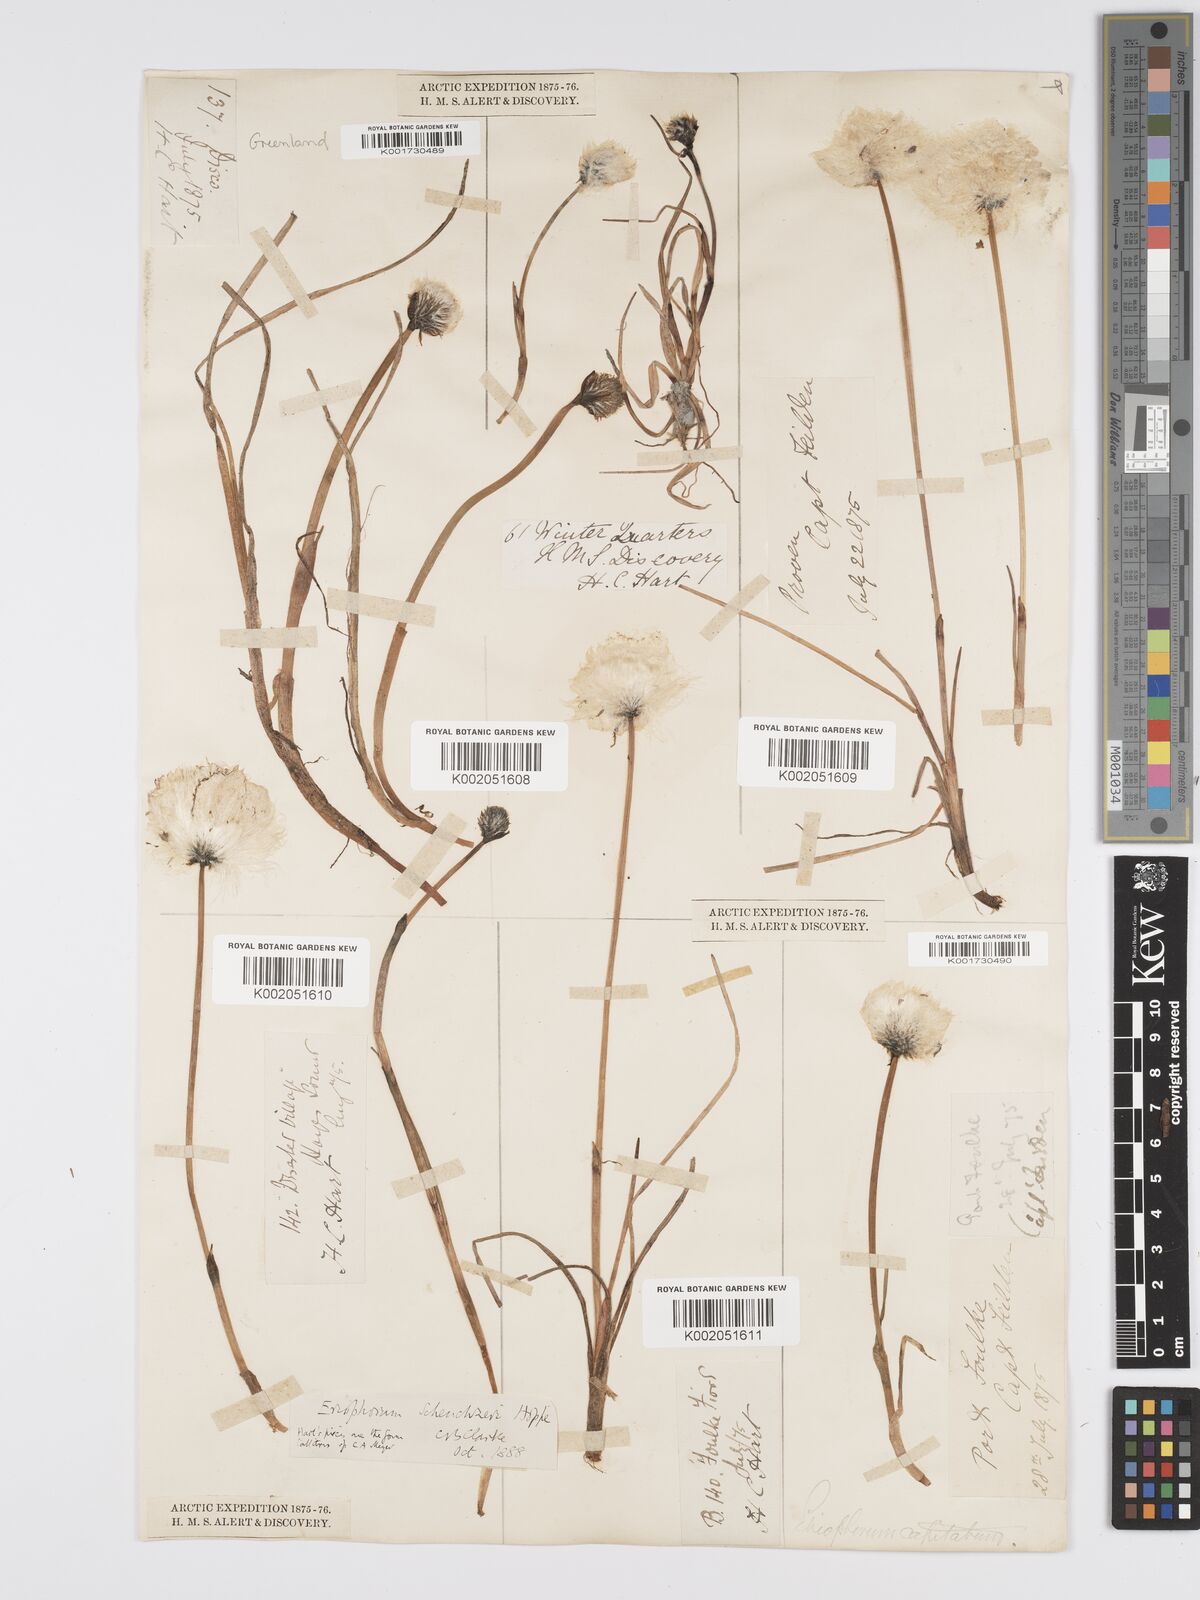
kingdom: Plantae
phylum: Tracheophyta
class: Liliopsida
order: Poales
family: Cyperaceae
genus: Eriophorum
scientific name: Eriophorum scheuchzeri
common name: Scheuchzer's cottongrass
